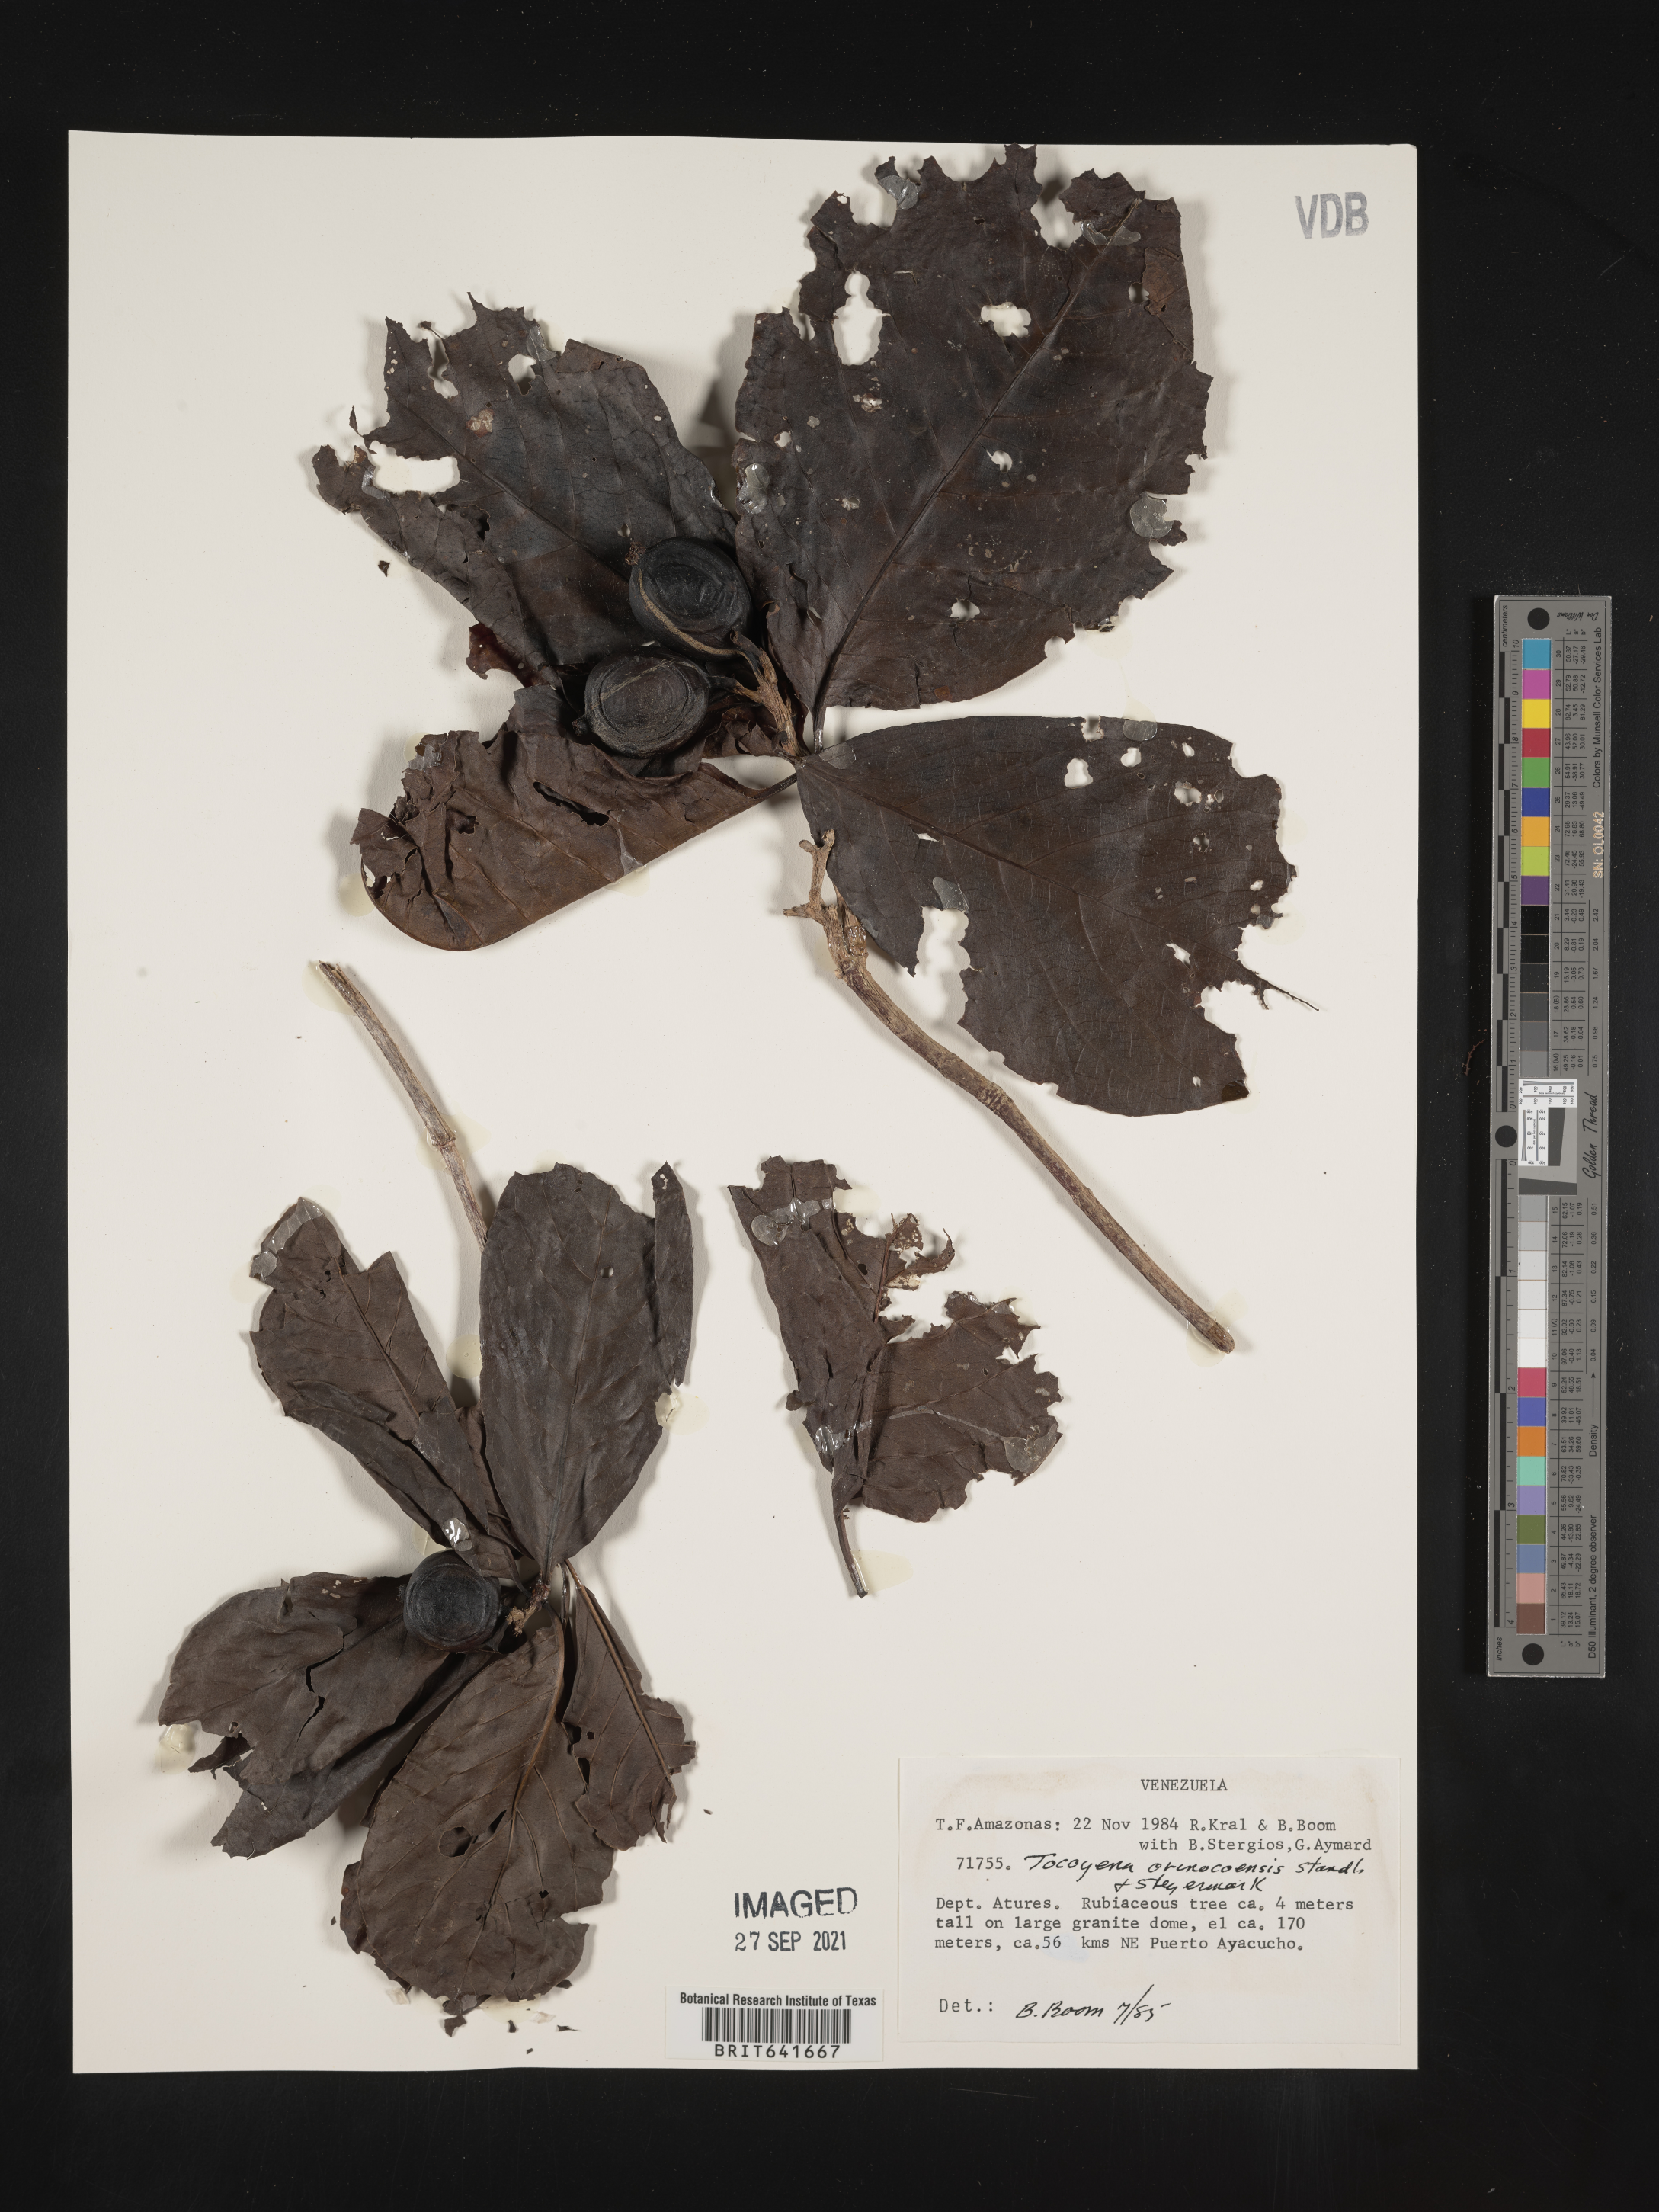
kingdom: Plantae
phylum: Tracheophyta
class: Magnoliopsida
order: Gentianales
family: Rubiaceae
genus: Tocoyena
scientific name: Tocoyena
